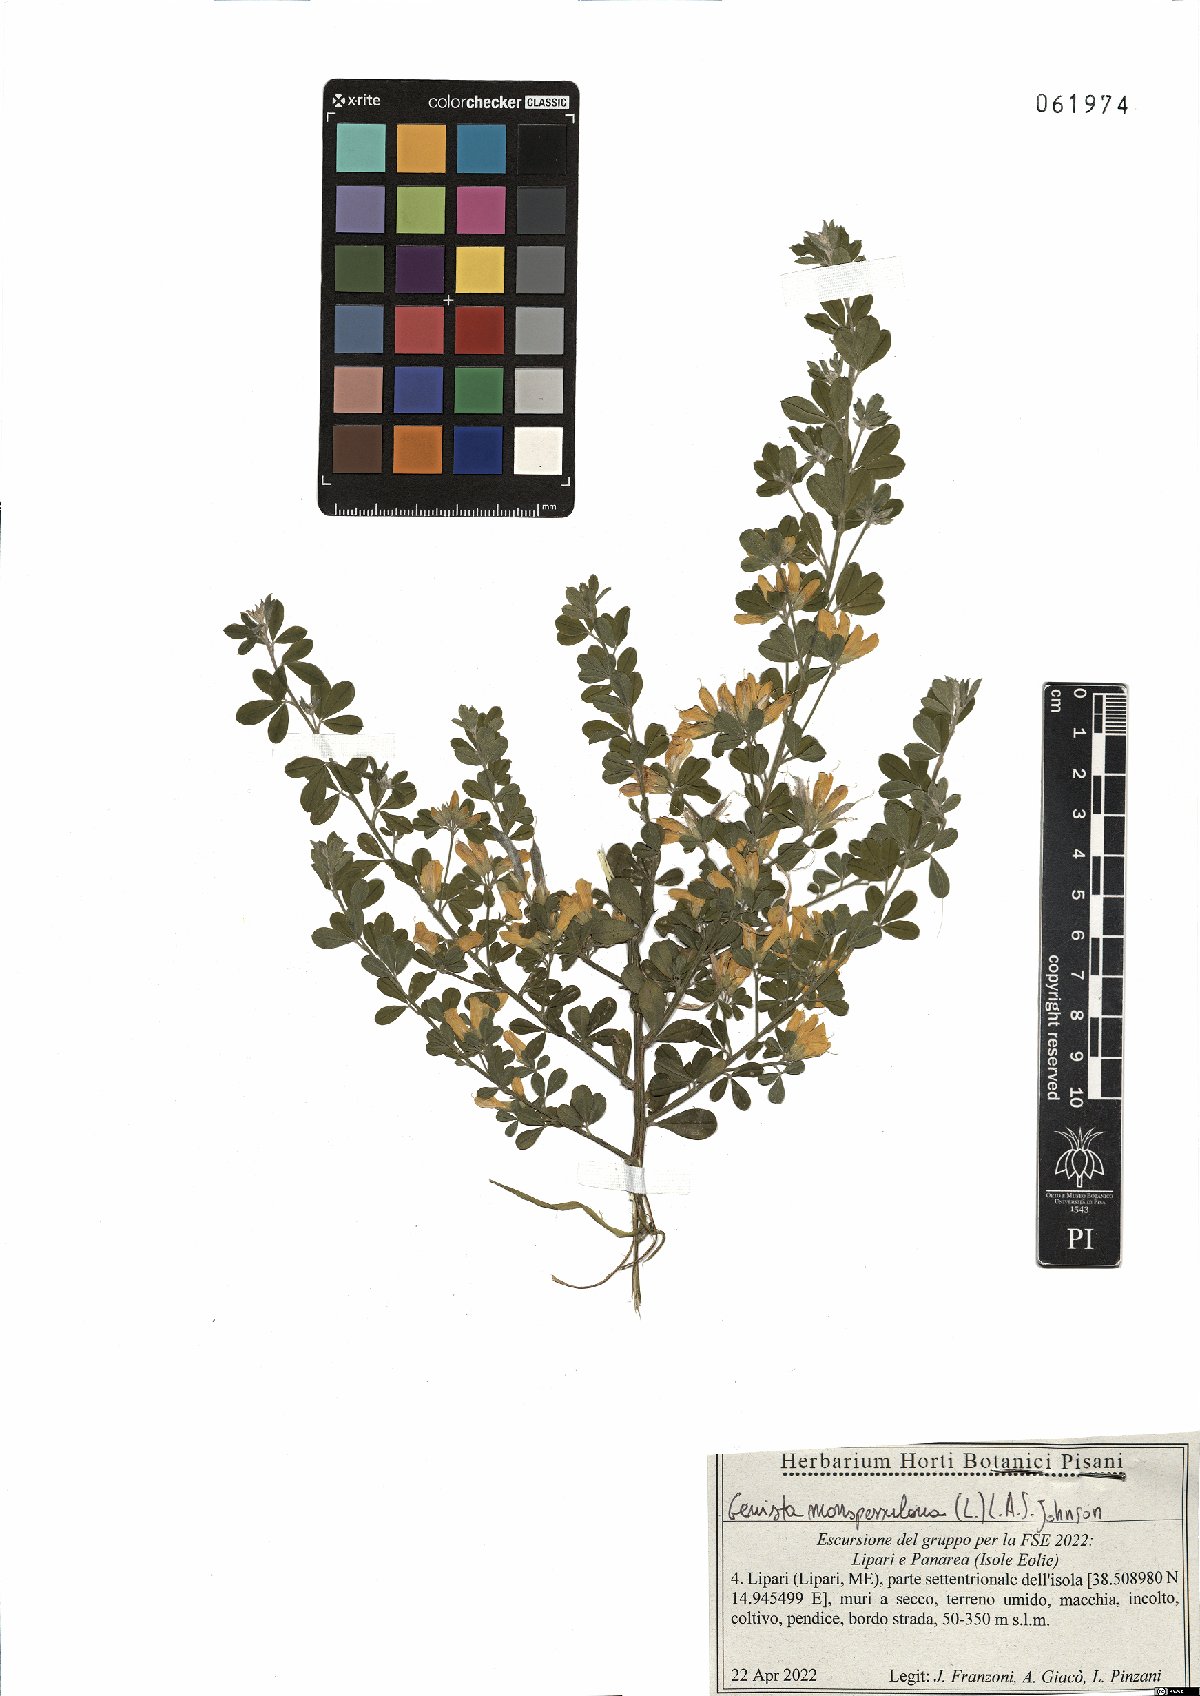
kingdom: Plantae
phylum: Tracheophyta
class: Magnoliopsida
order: Fabales
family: Fabaceae
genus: Genista
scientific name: Genista monspessulana
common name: Montpellier broom
